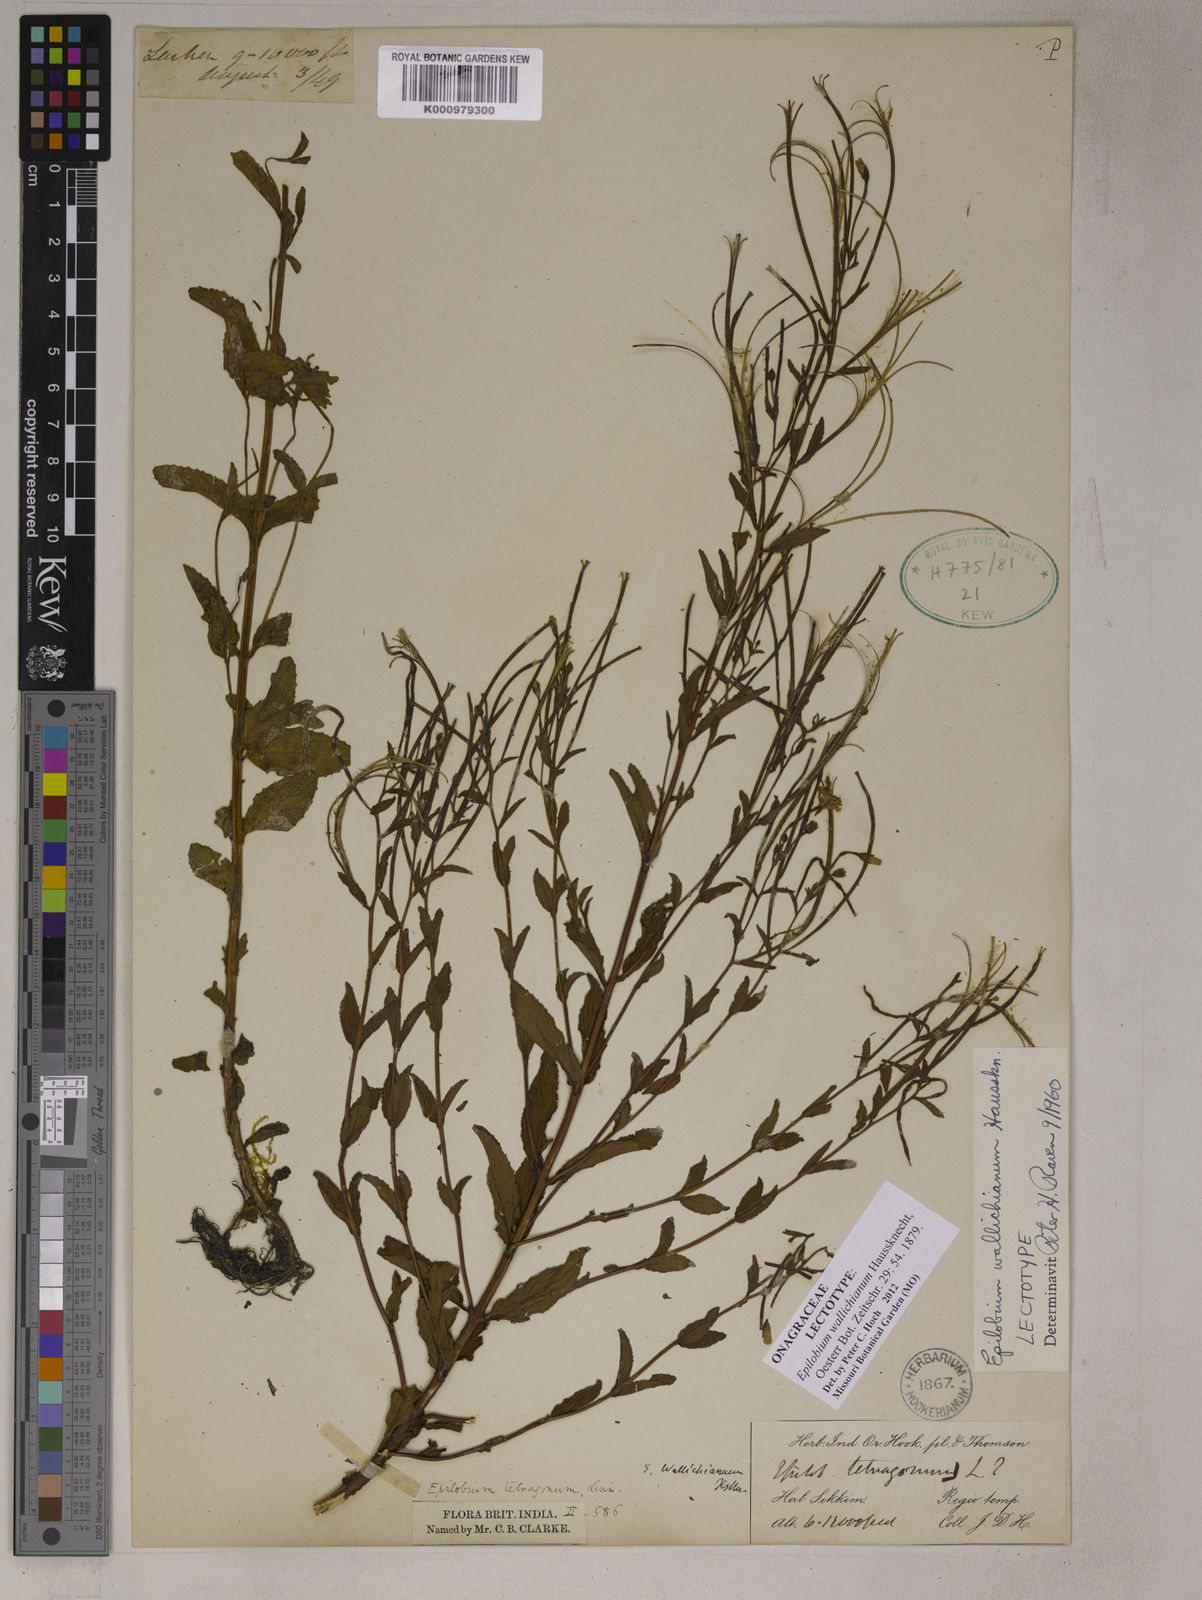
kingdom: Plantae
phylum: Tracheophyta
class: Magnoliopsida
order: Myrtales
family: Onagraceae
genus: Epilobium
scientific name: Epilobium wallichianum
